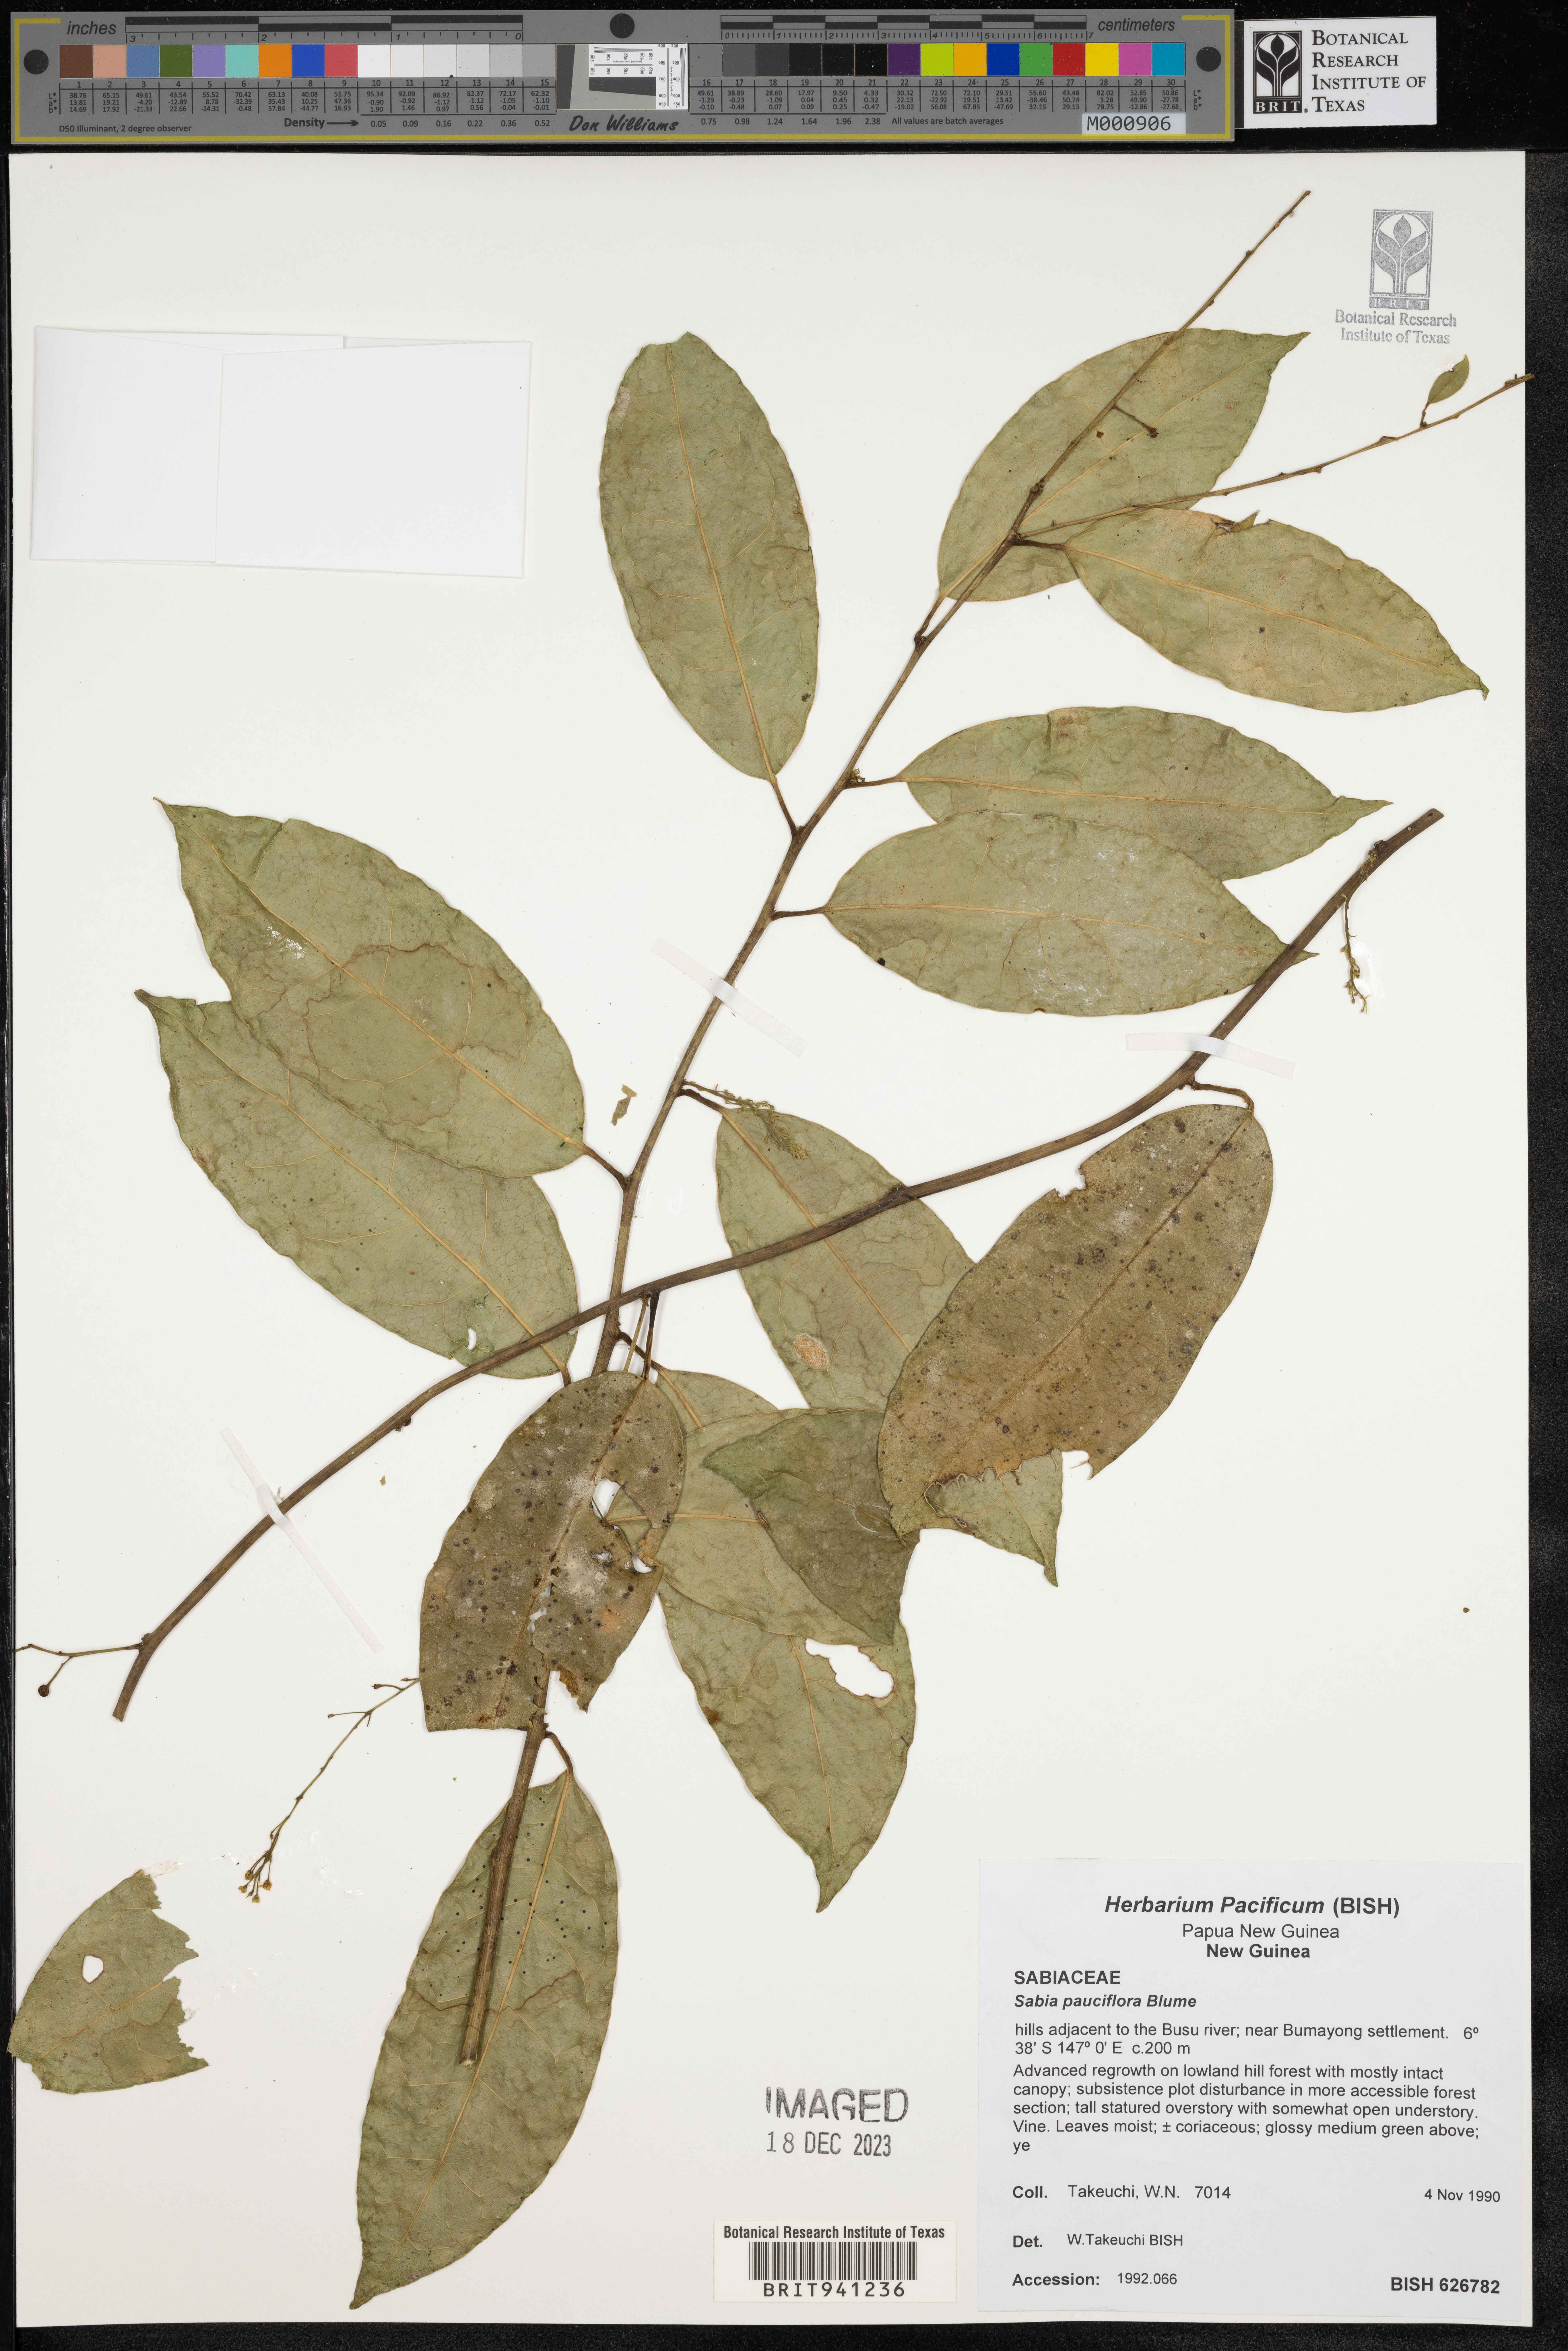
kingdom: Plantae
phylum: Tracheophyta
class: Magnoliopsida
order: Proteales
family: Sabiaceae
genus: Sabia
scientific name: Sabia
